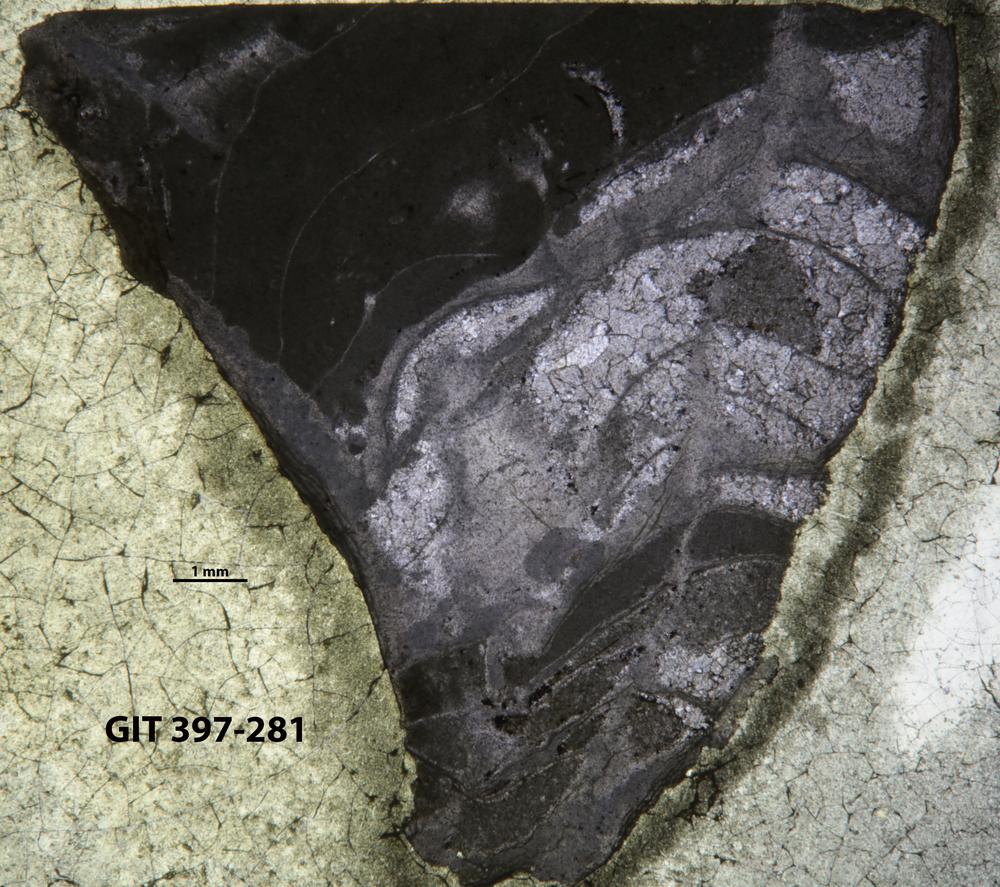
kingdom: Animalia
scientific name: Animalia
